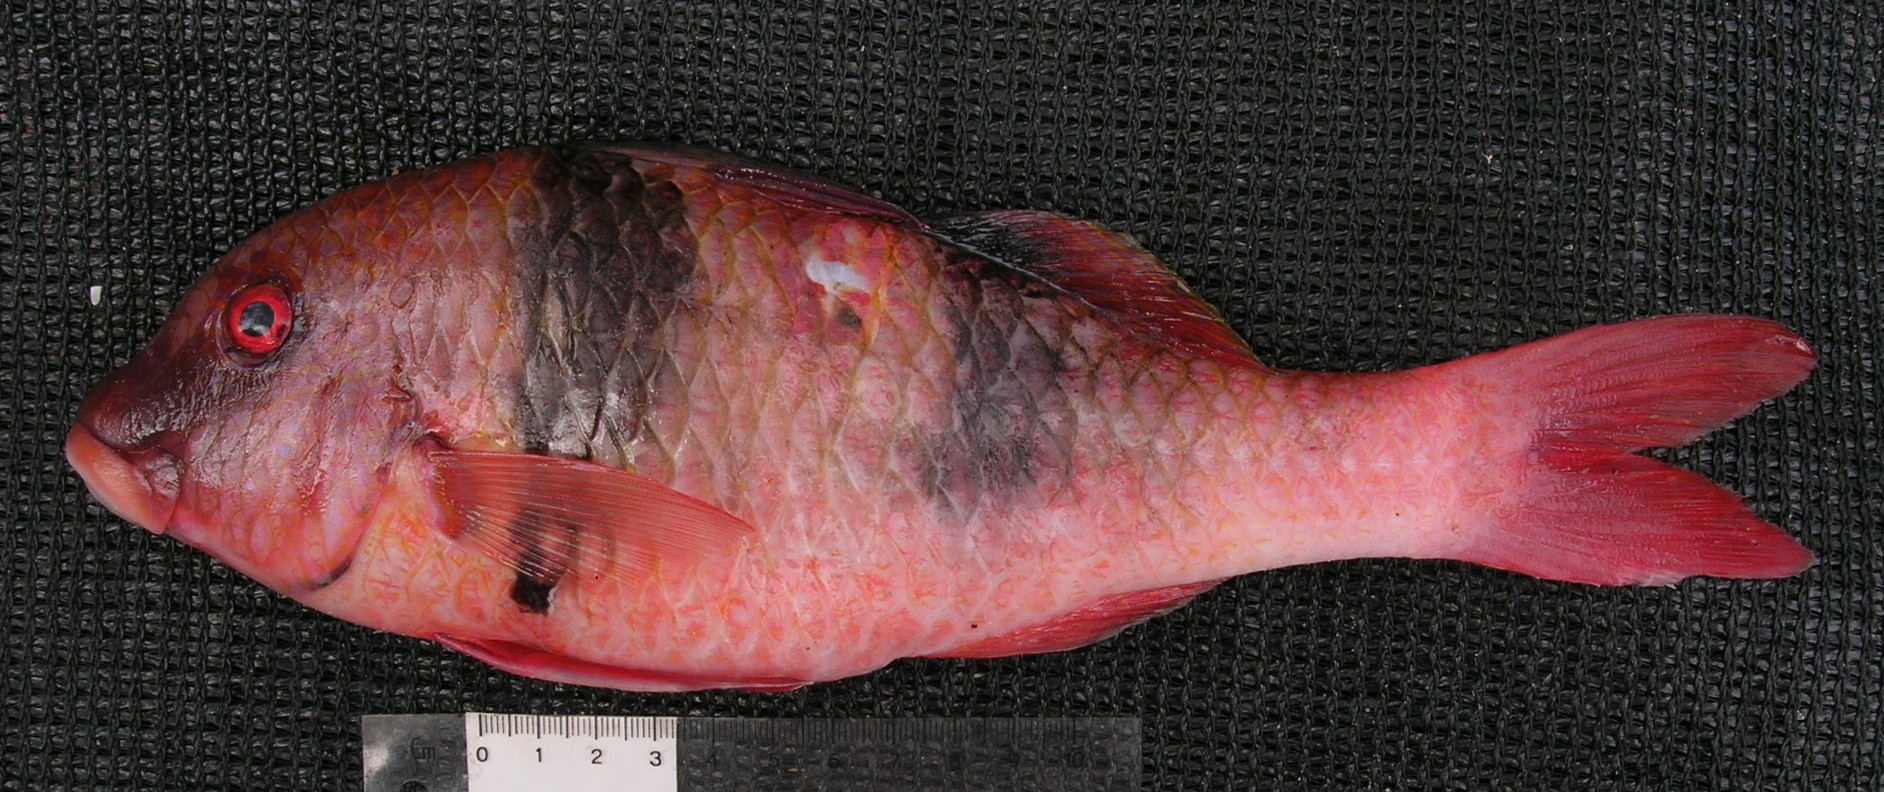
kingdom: Animalia
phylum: Chordata
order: Perciformes
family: Mullidae
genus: Parupeneus
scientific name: Parupeneus trifasciatus
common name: Doublebar goatfish
